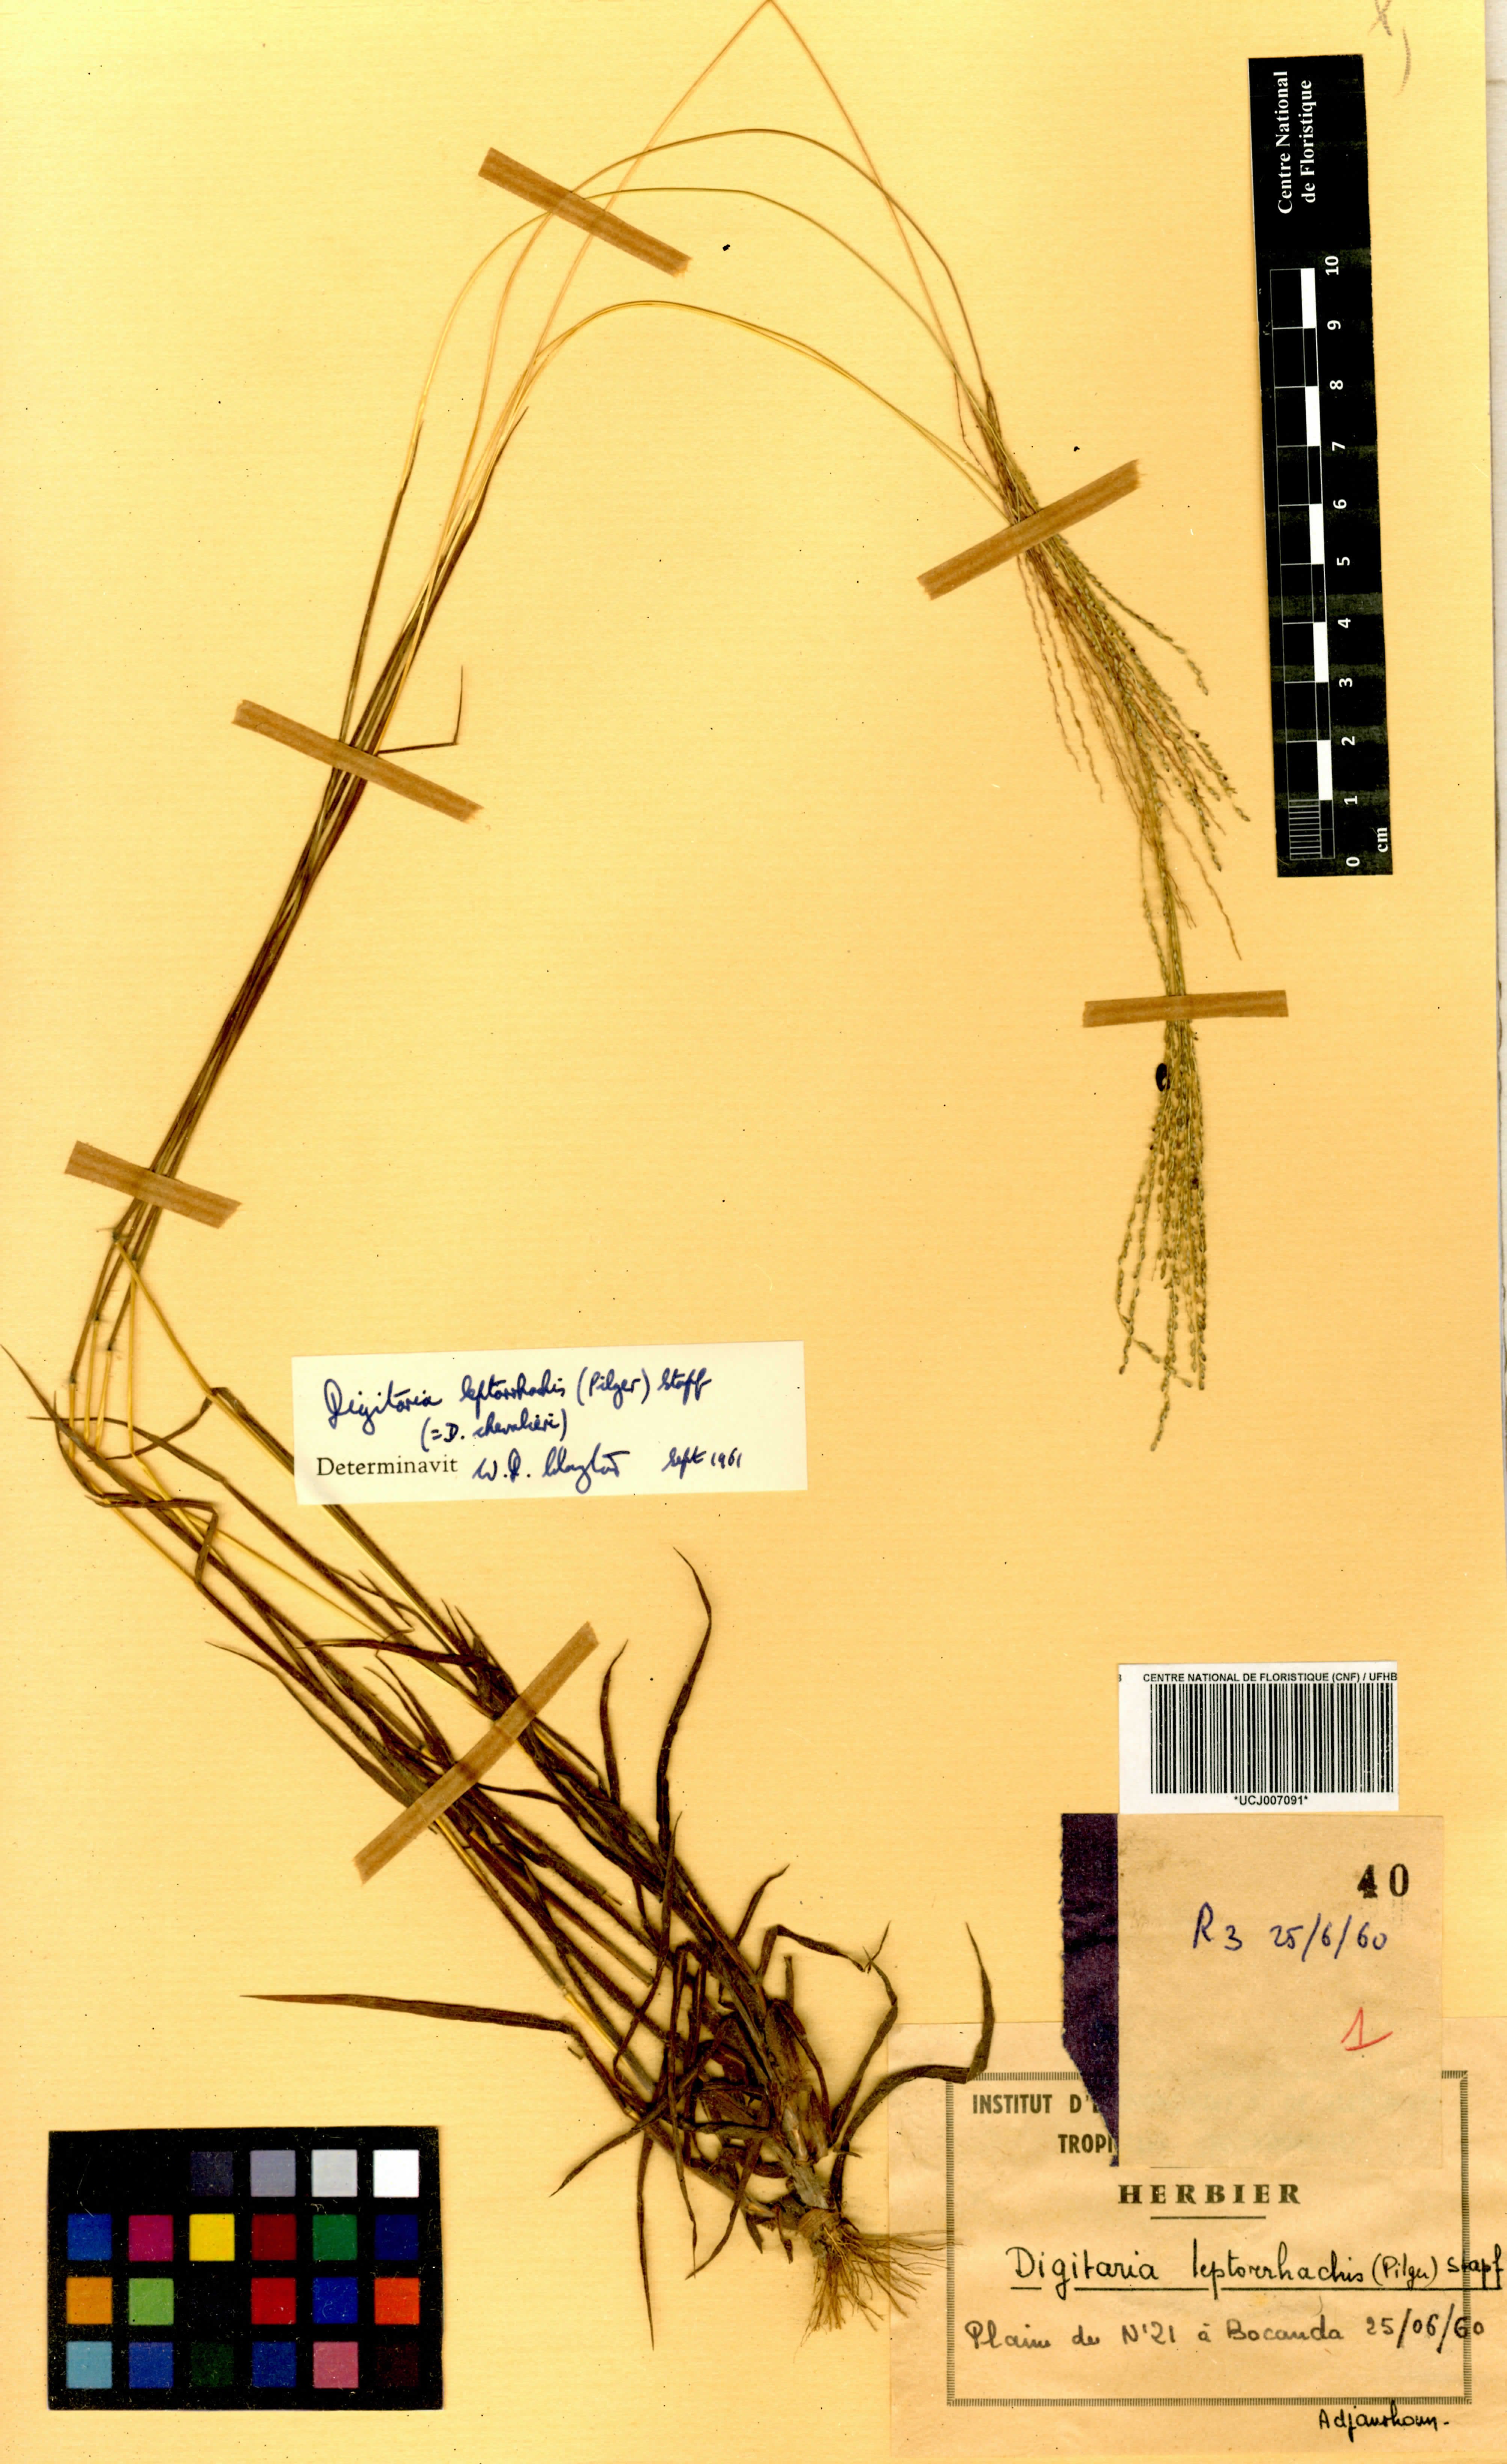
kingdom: Plantae
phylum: Tracheophyta
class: Liliopsida
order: Poales
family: Poaceae
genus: Digitaria
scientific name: Digitaria leptorhachis
